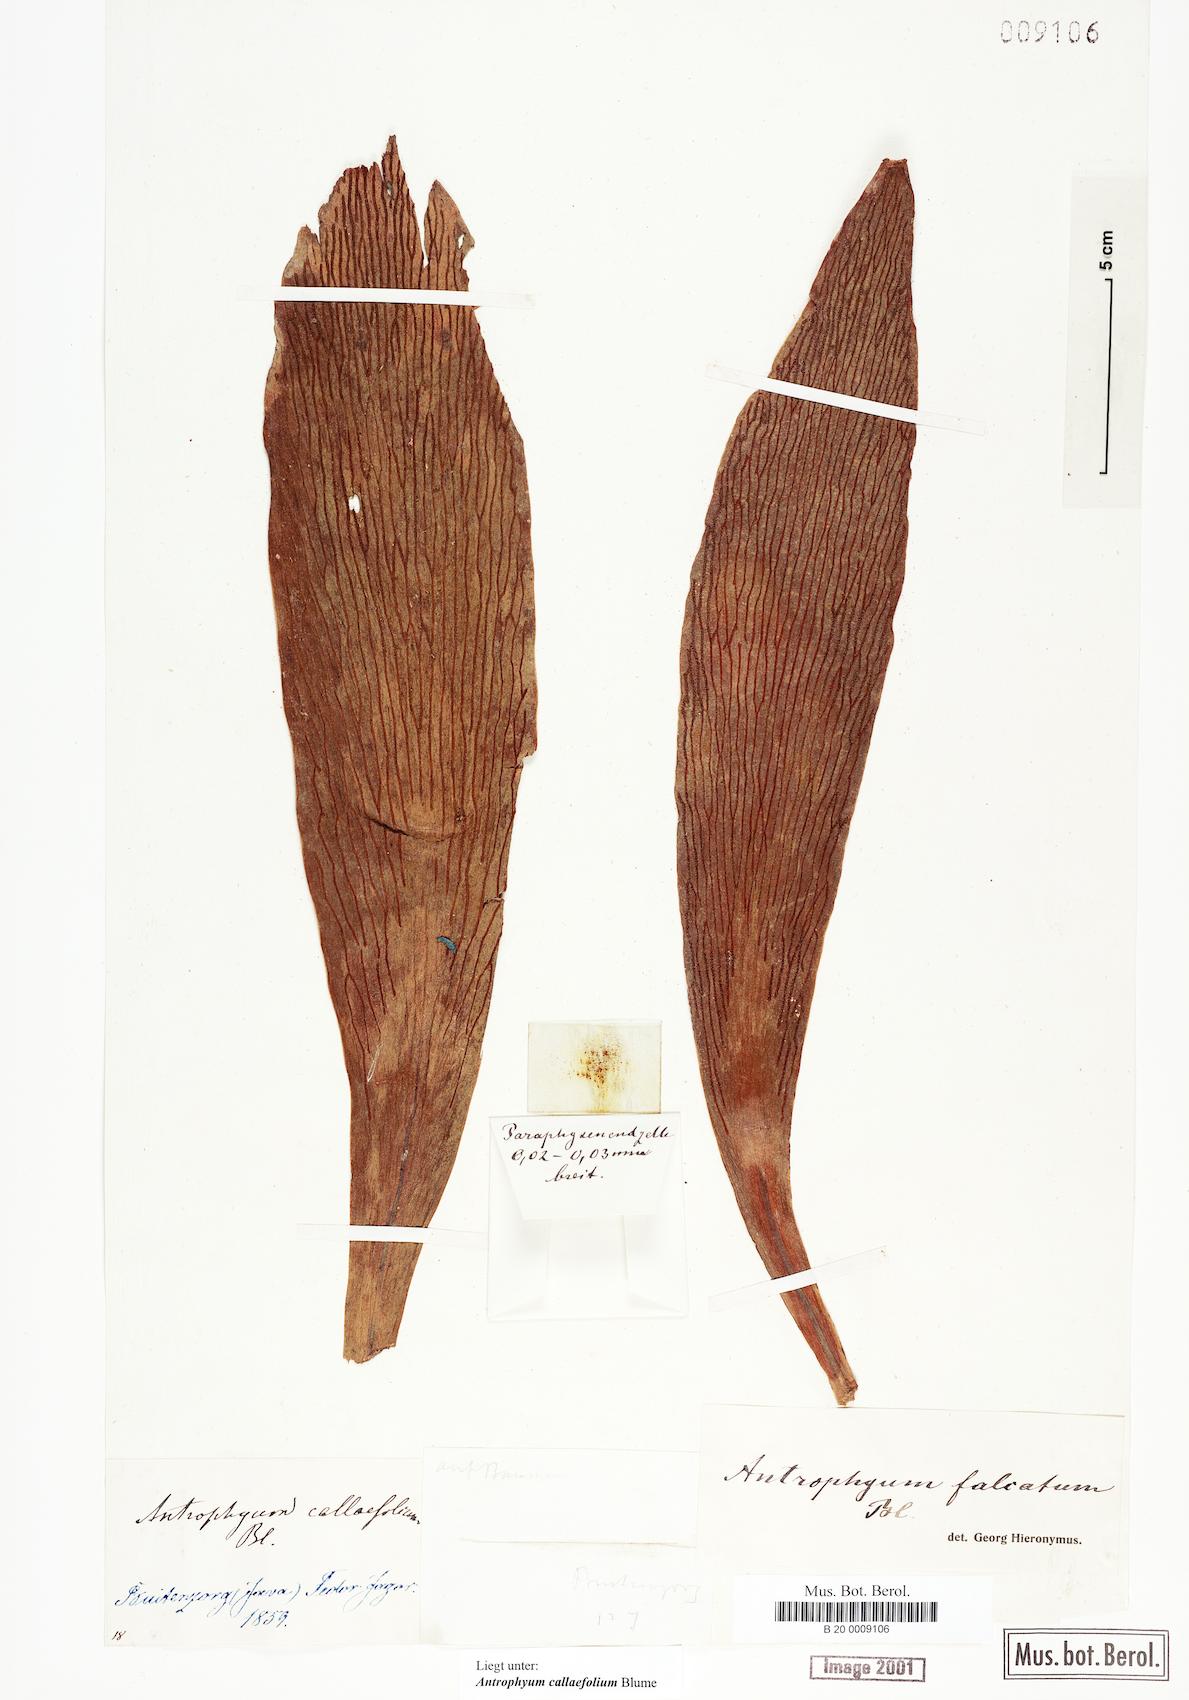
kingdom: Plantae
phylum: Tracheophyta
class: Polypodiopsida
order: Polypodiales
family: Pteridaceae
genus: Antrophyum
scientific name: Antrophyum callifolium
